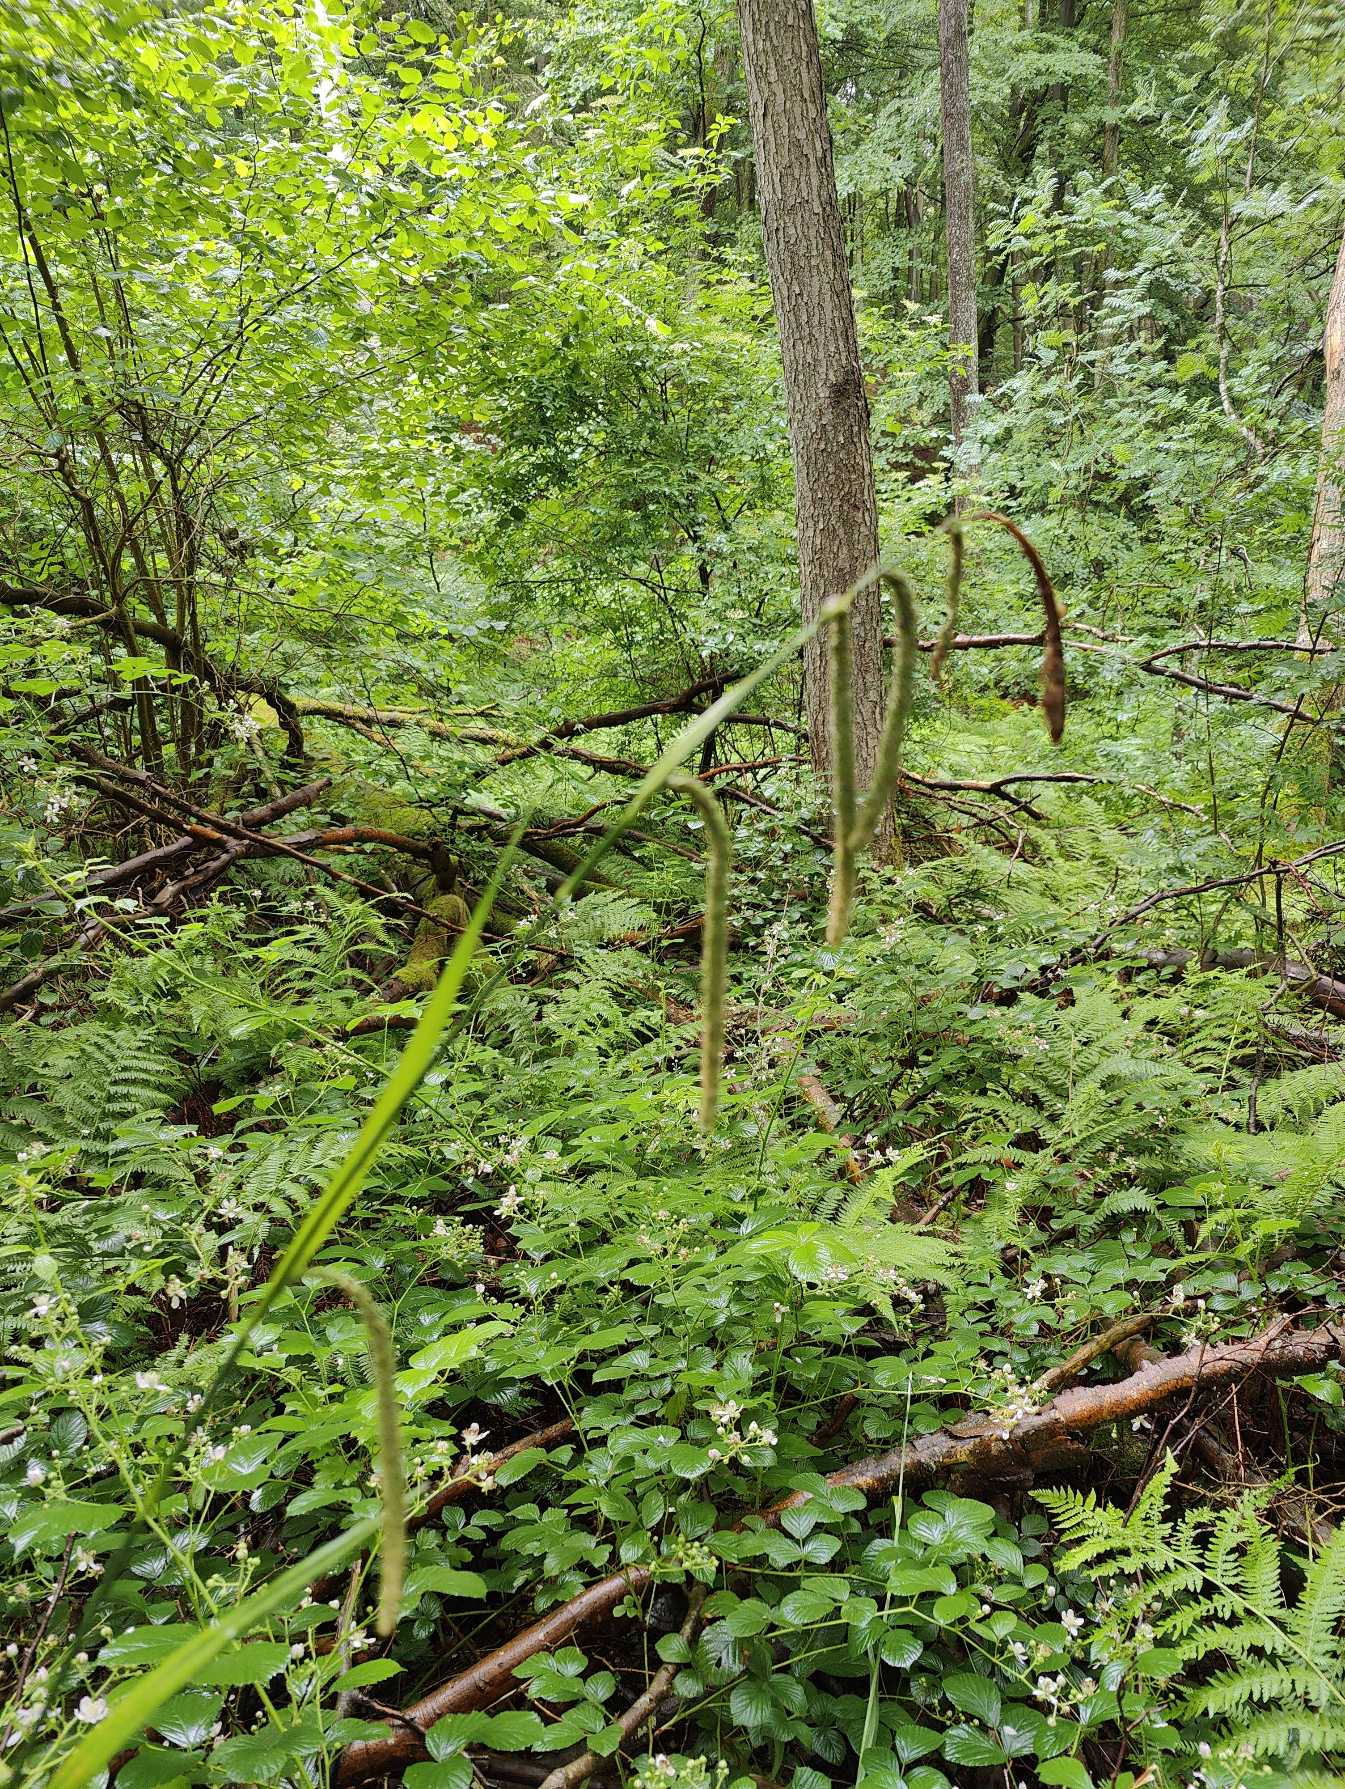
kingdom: Plantae
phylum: Tracheophyta
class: Liliopsida
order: Poales
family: Cyperaceae
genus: Carex
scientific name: Carex pendula
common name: Kæmpe-star
